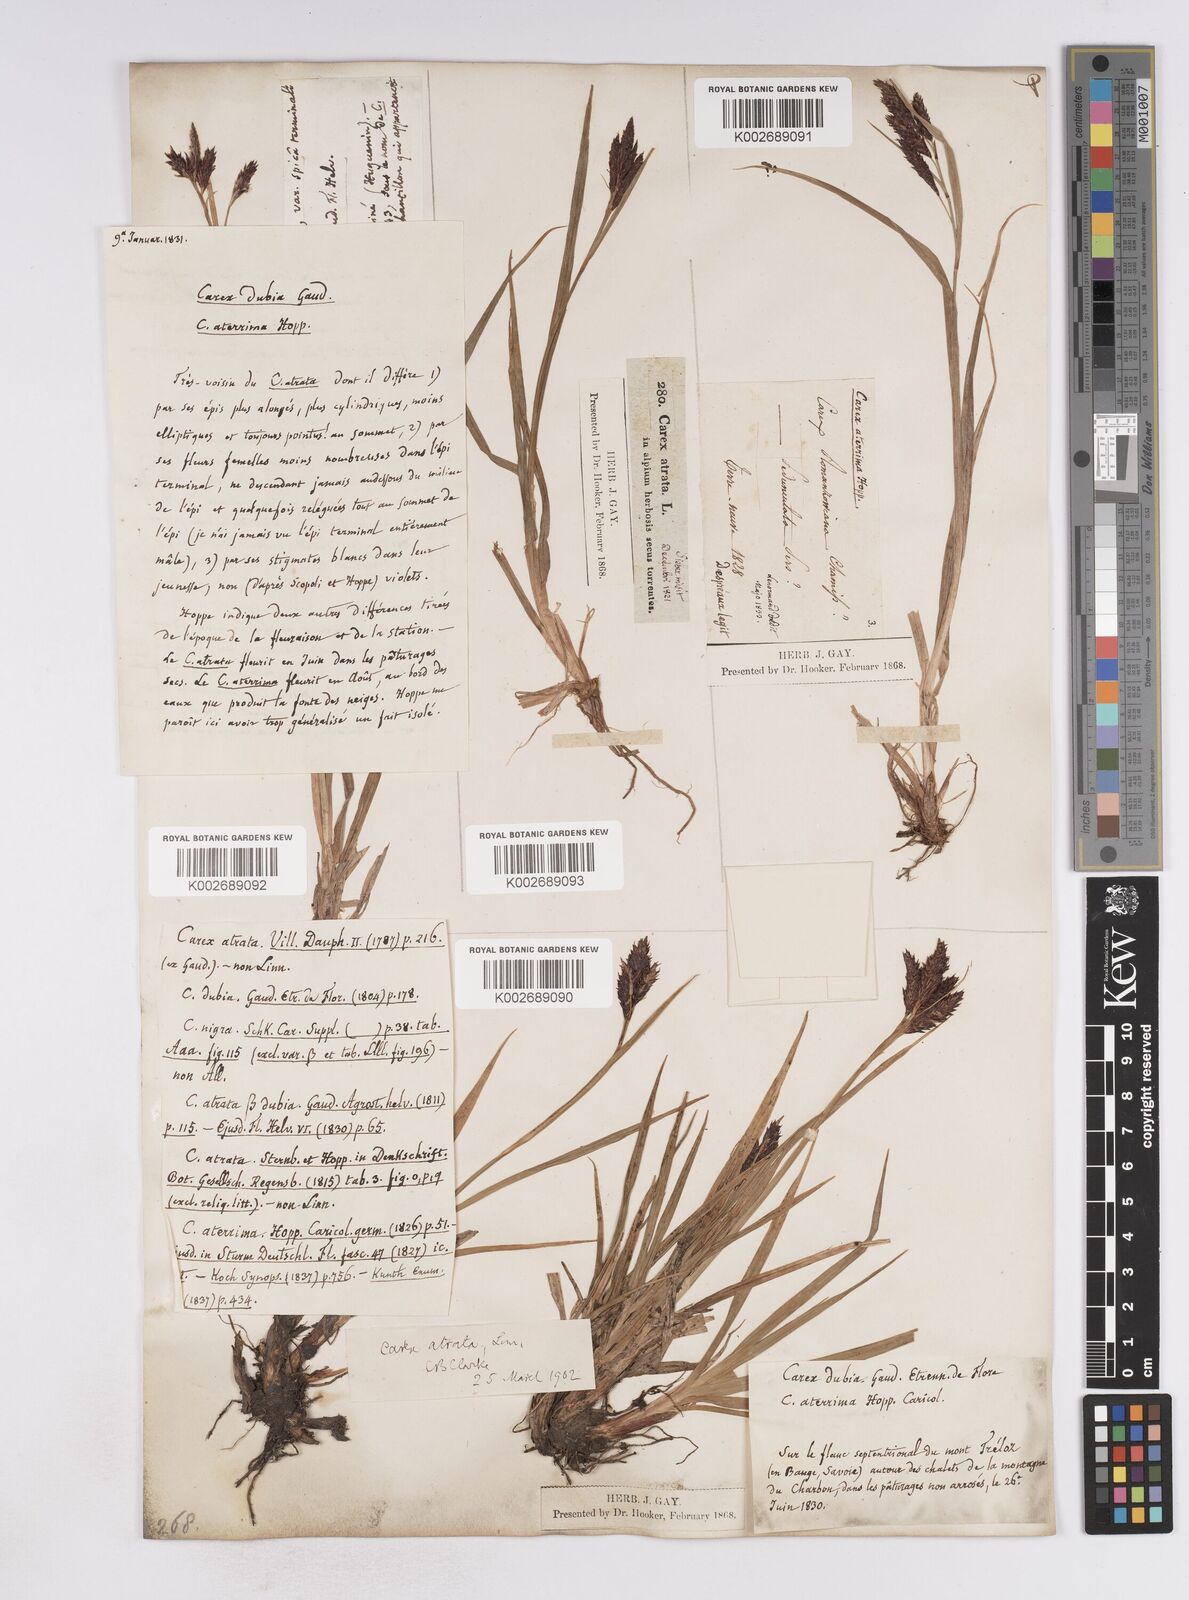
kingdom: Plantae
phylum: Tracheophyta
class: Liliopsida
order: Poales
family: Cyperaceae
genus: Carex
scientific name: Carex atrata
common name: Black alpine sedge
